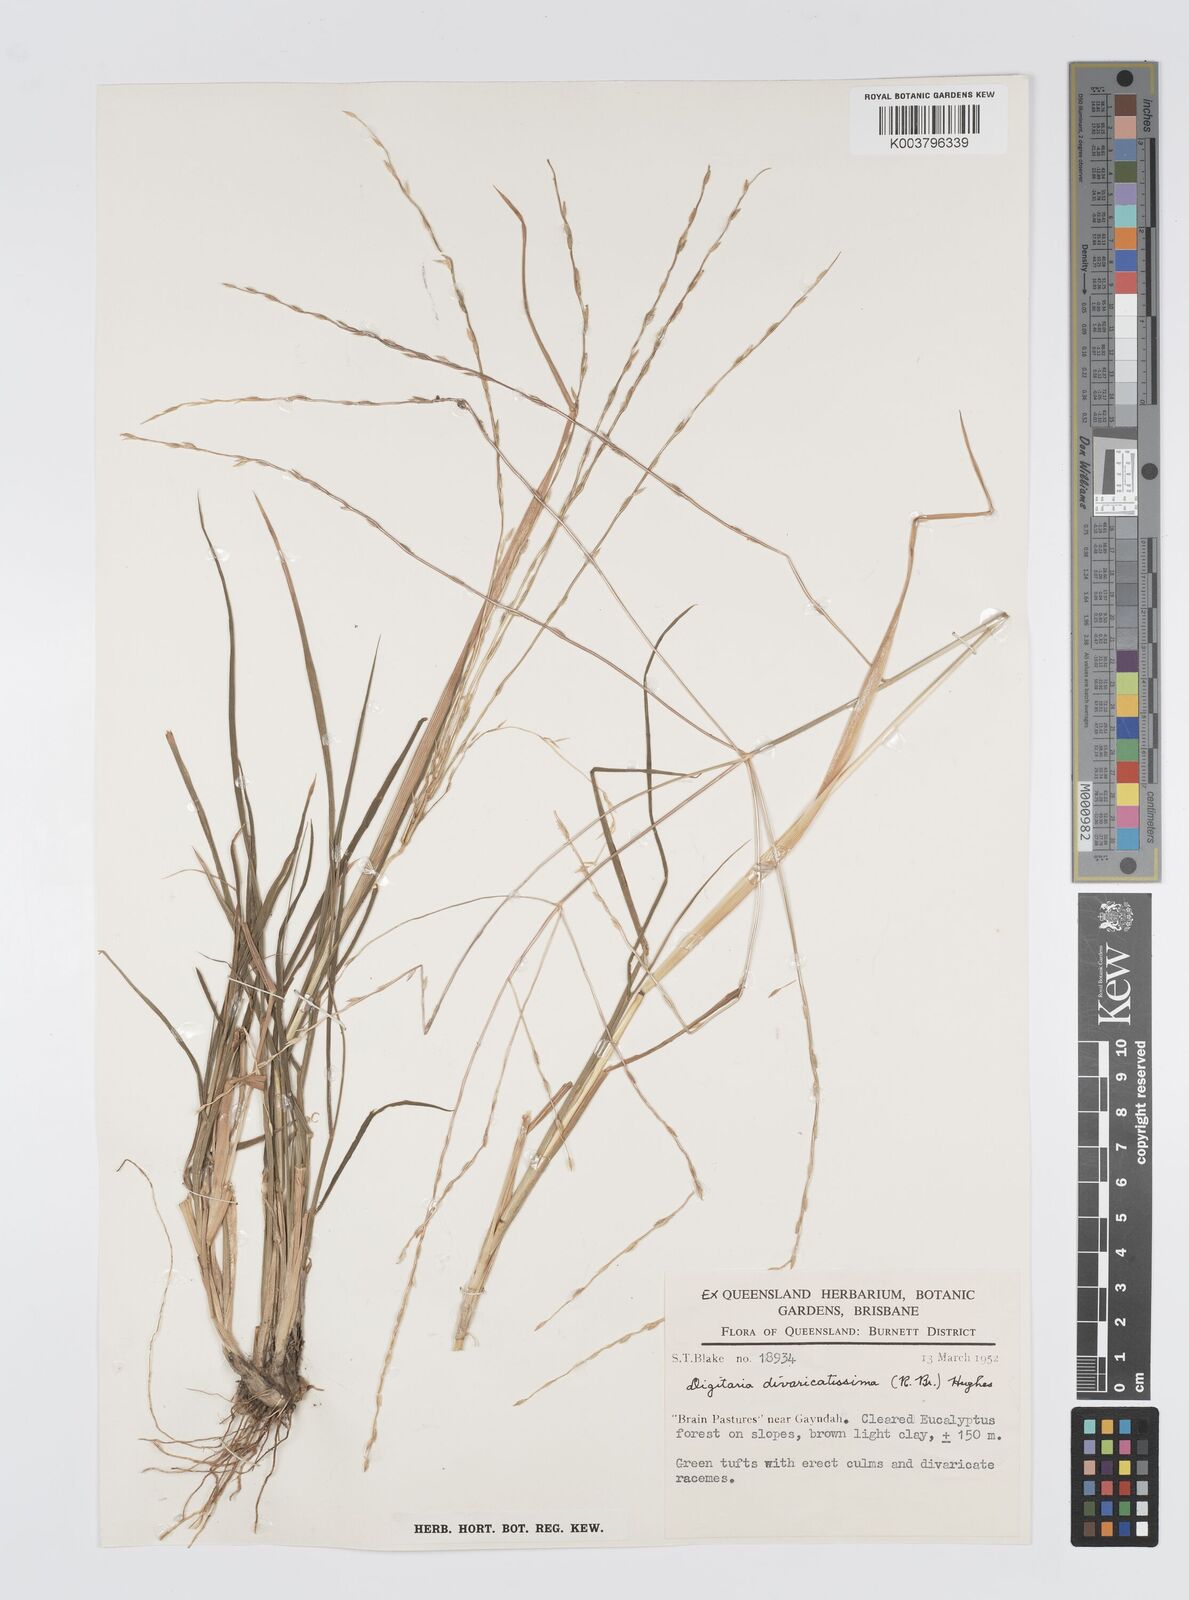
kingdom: Plantae
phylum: Tracheophyta
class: Liliopsida
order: Poales
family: Poaceae
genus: Digitaria
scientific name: Digitaria divaricatissima
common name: Crabgrass
